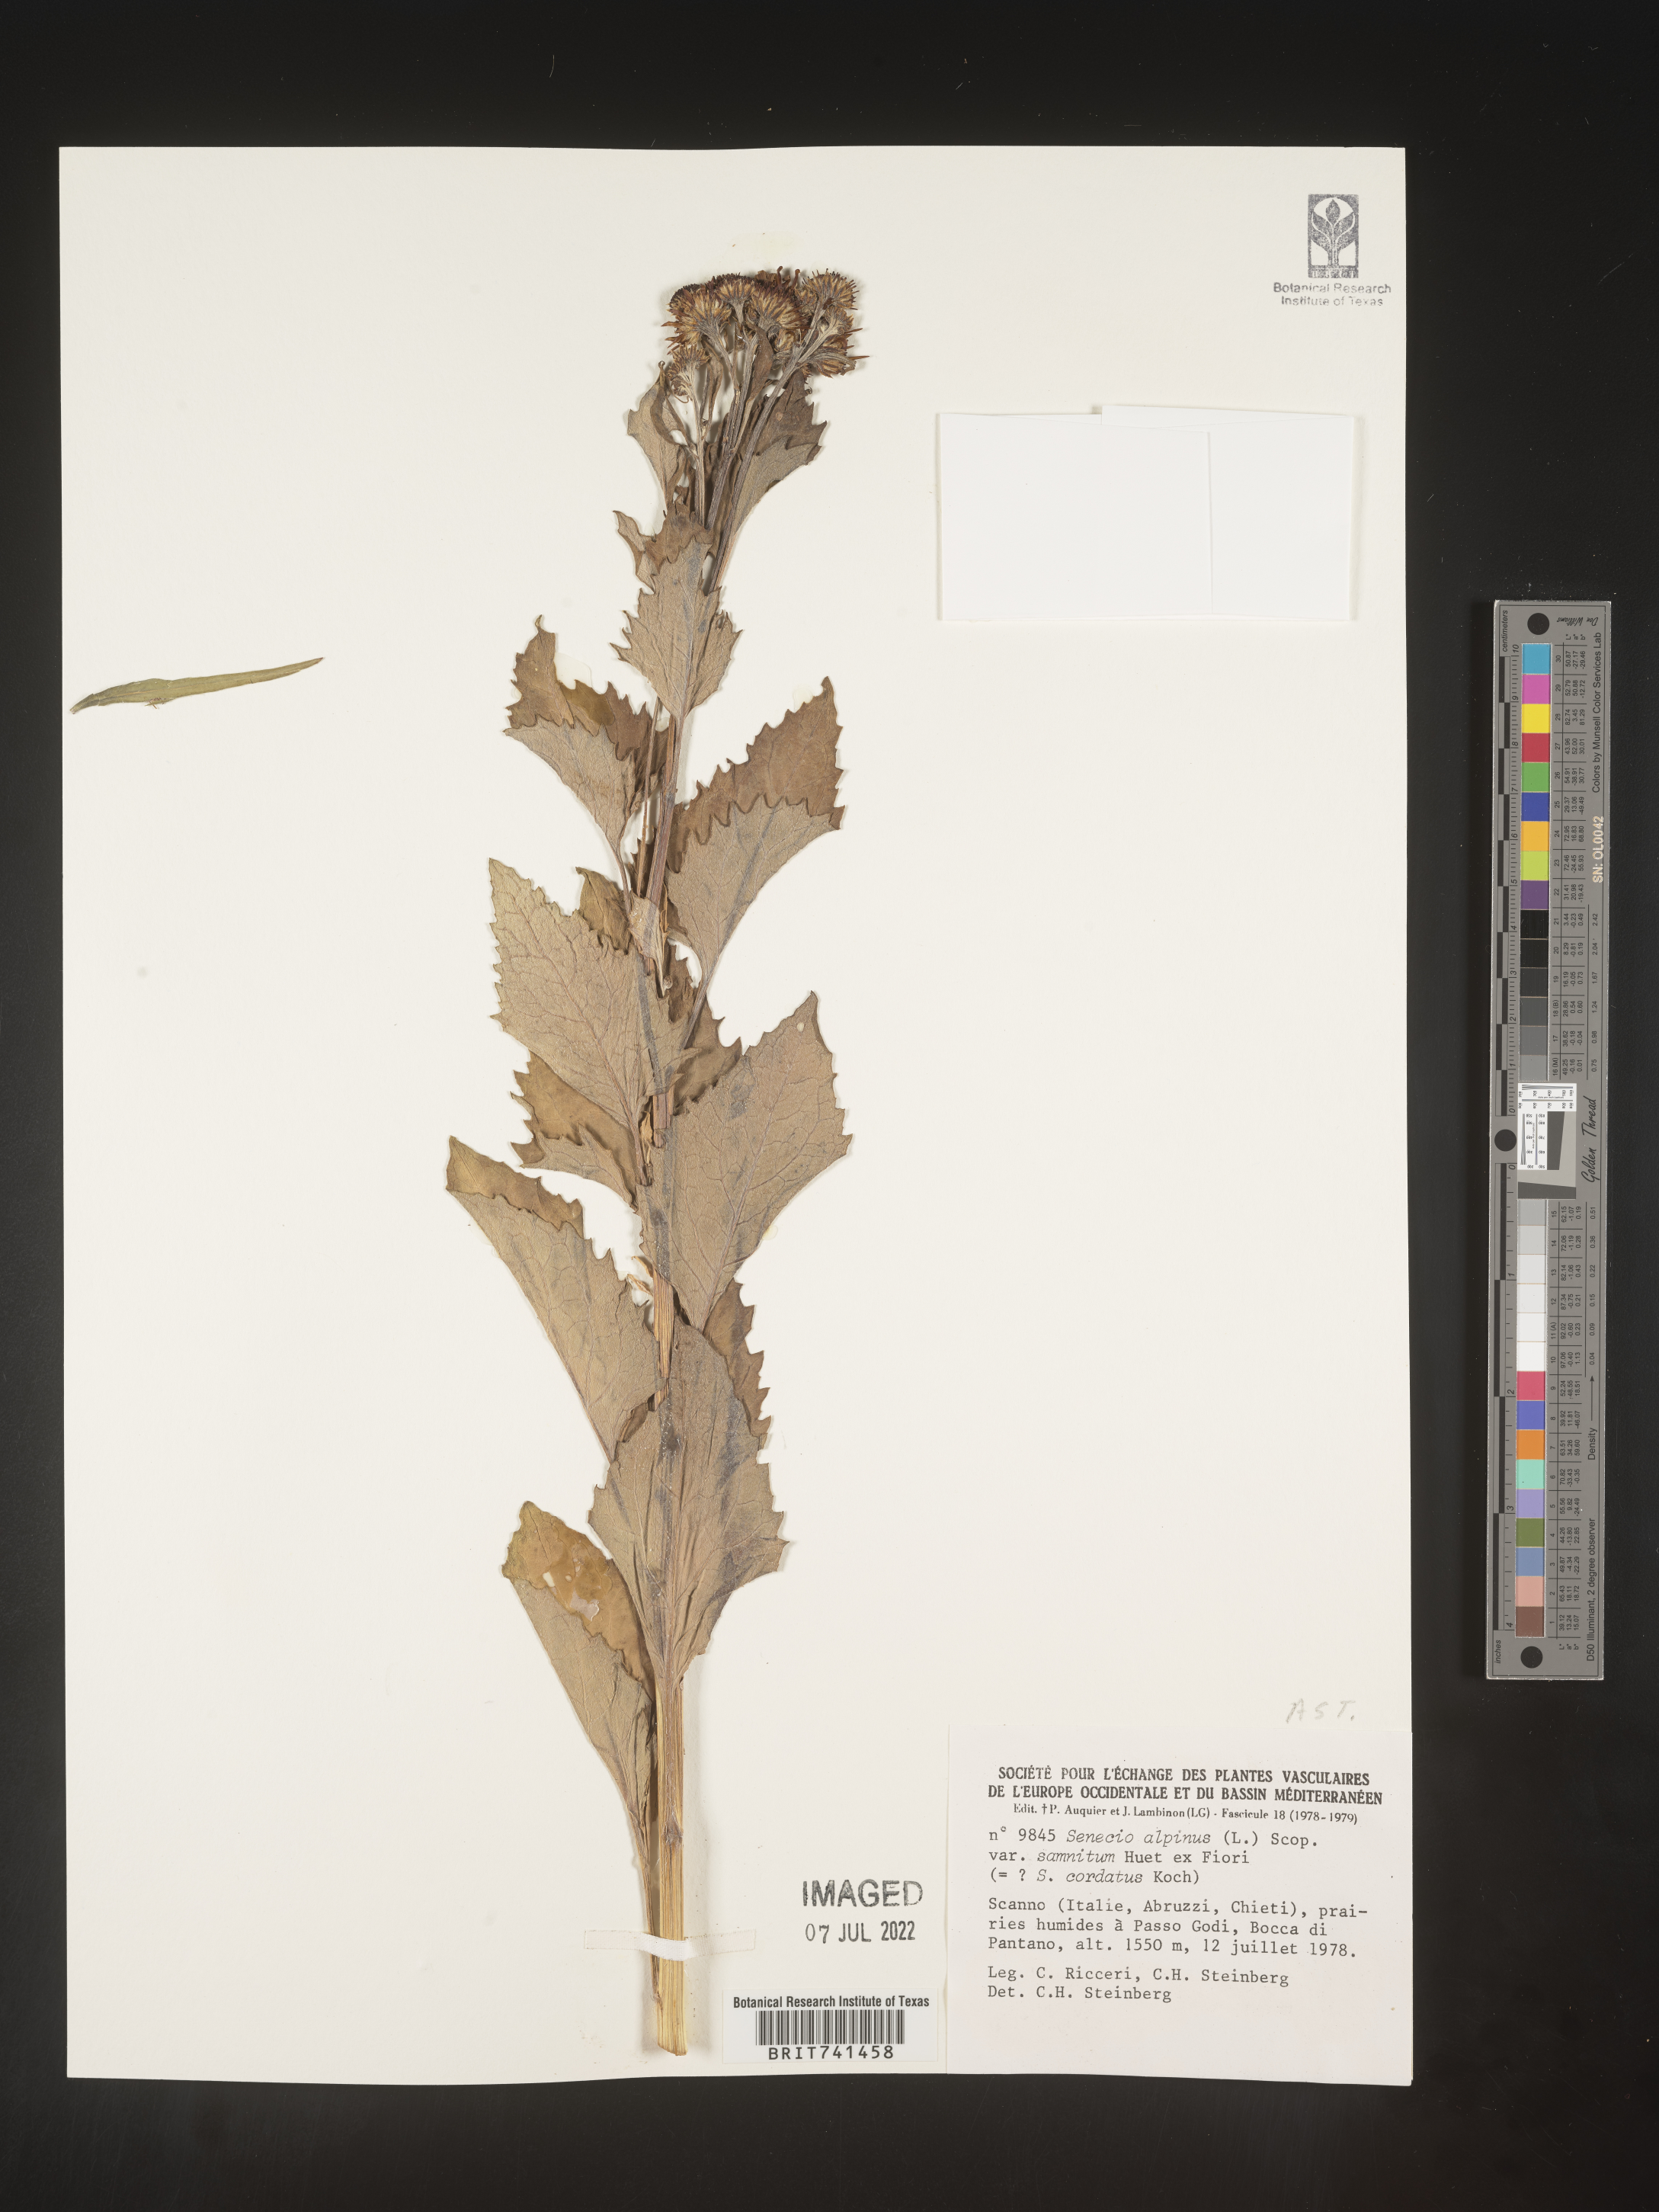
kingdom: Plantae
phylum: Tracheophyta
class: Magnoliopsida
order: Asterales
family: Asteraceae
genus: Senecio
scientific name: Senecio
